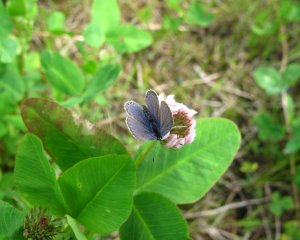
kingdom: Animalia
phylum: Arthropoda
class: Insecta
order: Lepidoptera
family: Lycaenidae
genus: Elkalyce
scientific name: Elkalyce comyntas
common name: Eastern Tailed-Blue
